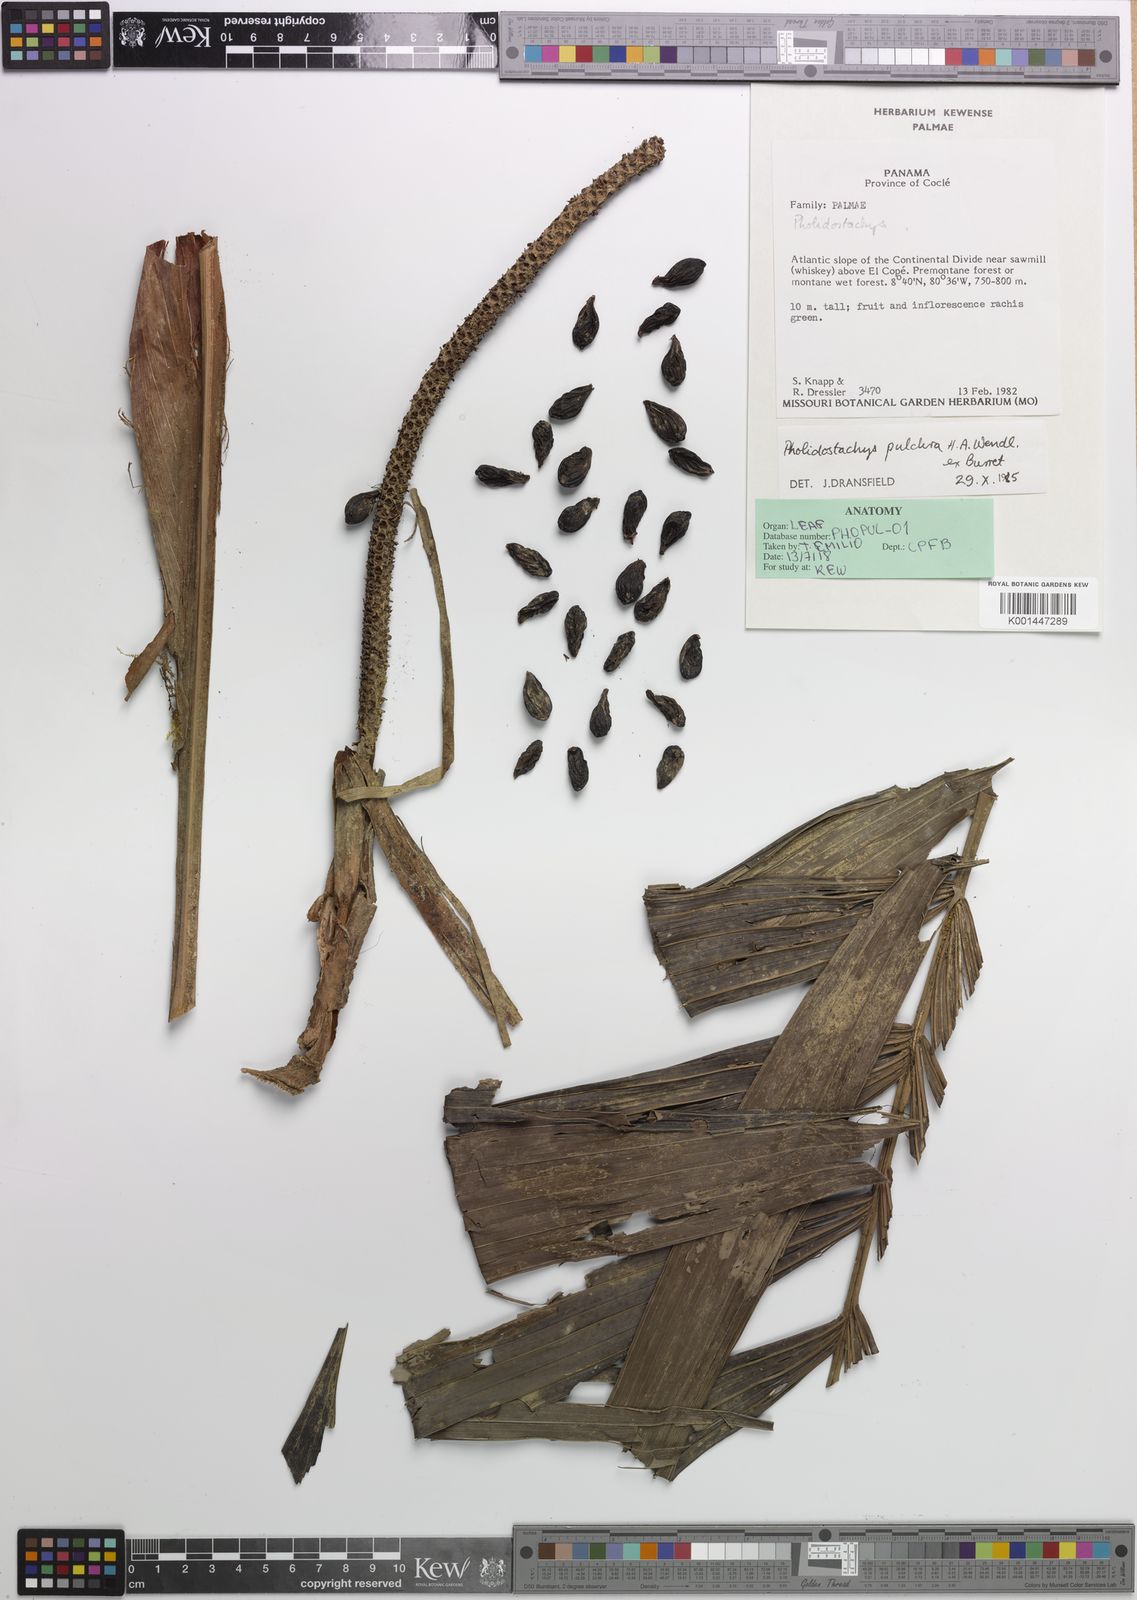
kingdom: Plantae
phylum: Tracheophyta
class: Liliopsida
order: Arecales
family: Arecaceae
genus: Pholidostachys
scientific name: Pholidostachys pulchra
